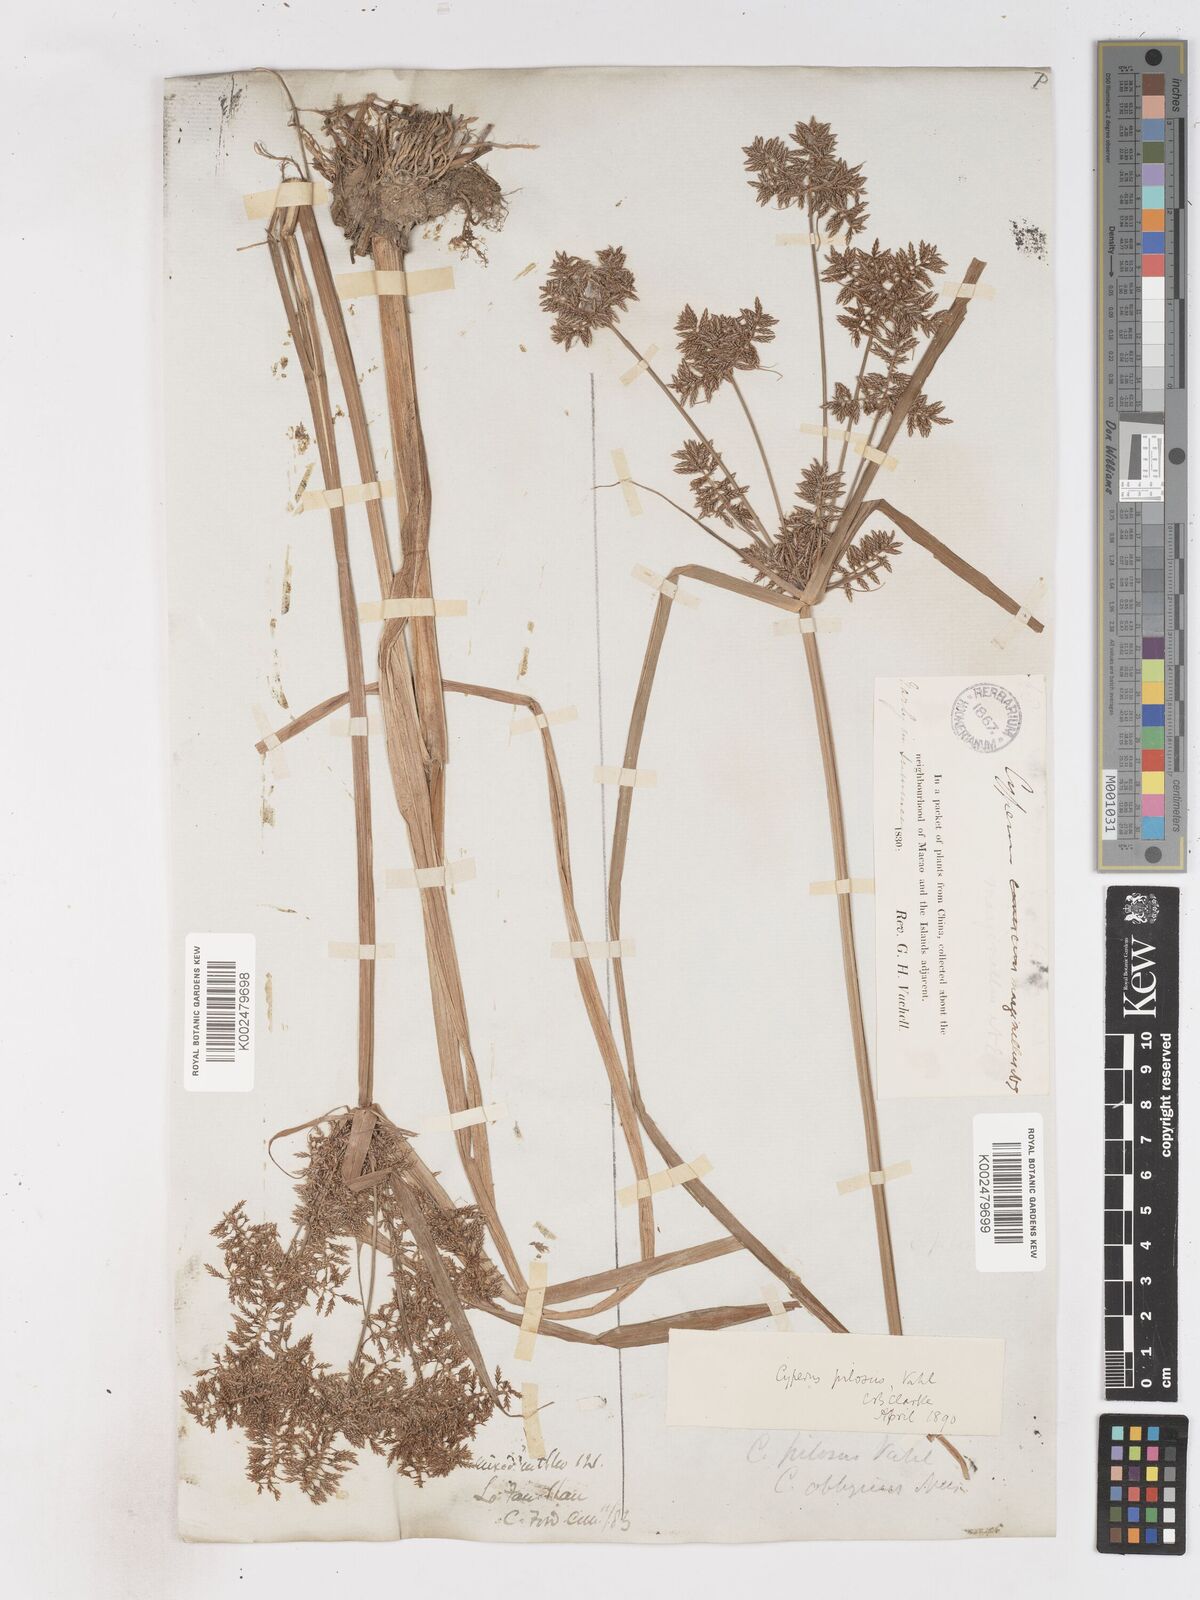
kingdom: Plantae
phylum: Tracheophyta
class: Liliopsida
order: Poales
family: Cyperaceae
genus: Cyperus
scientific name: Cyperus pilosus
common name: Fuzzy flatsedge
